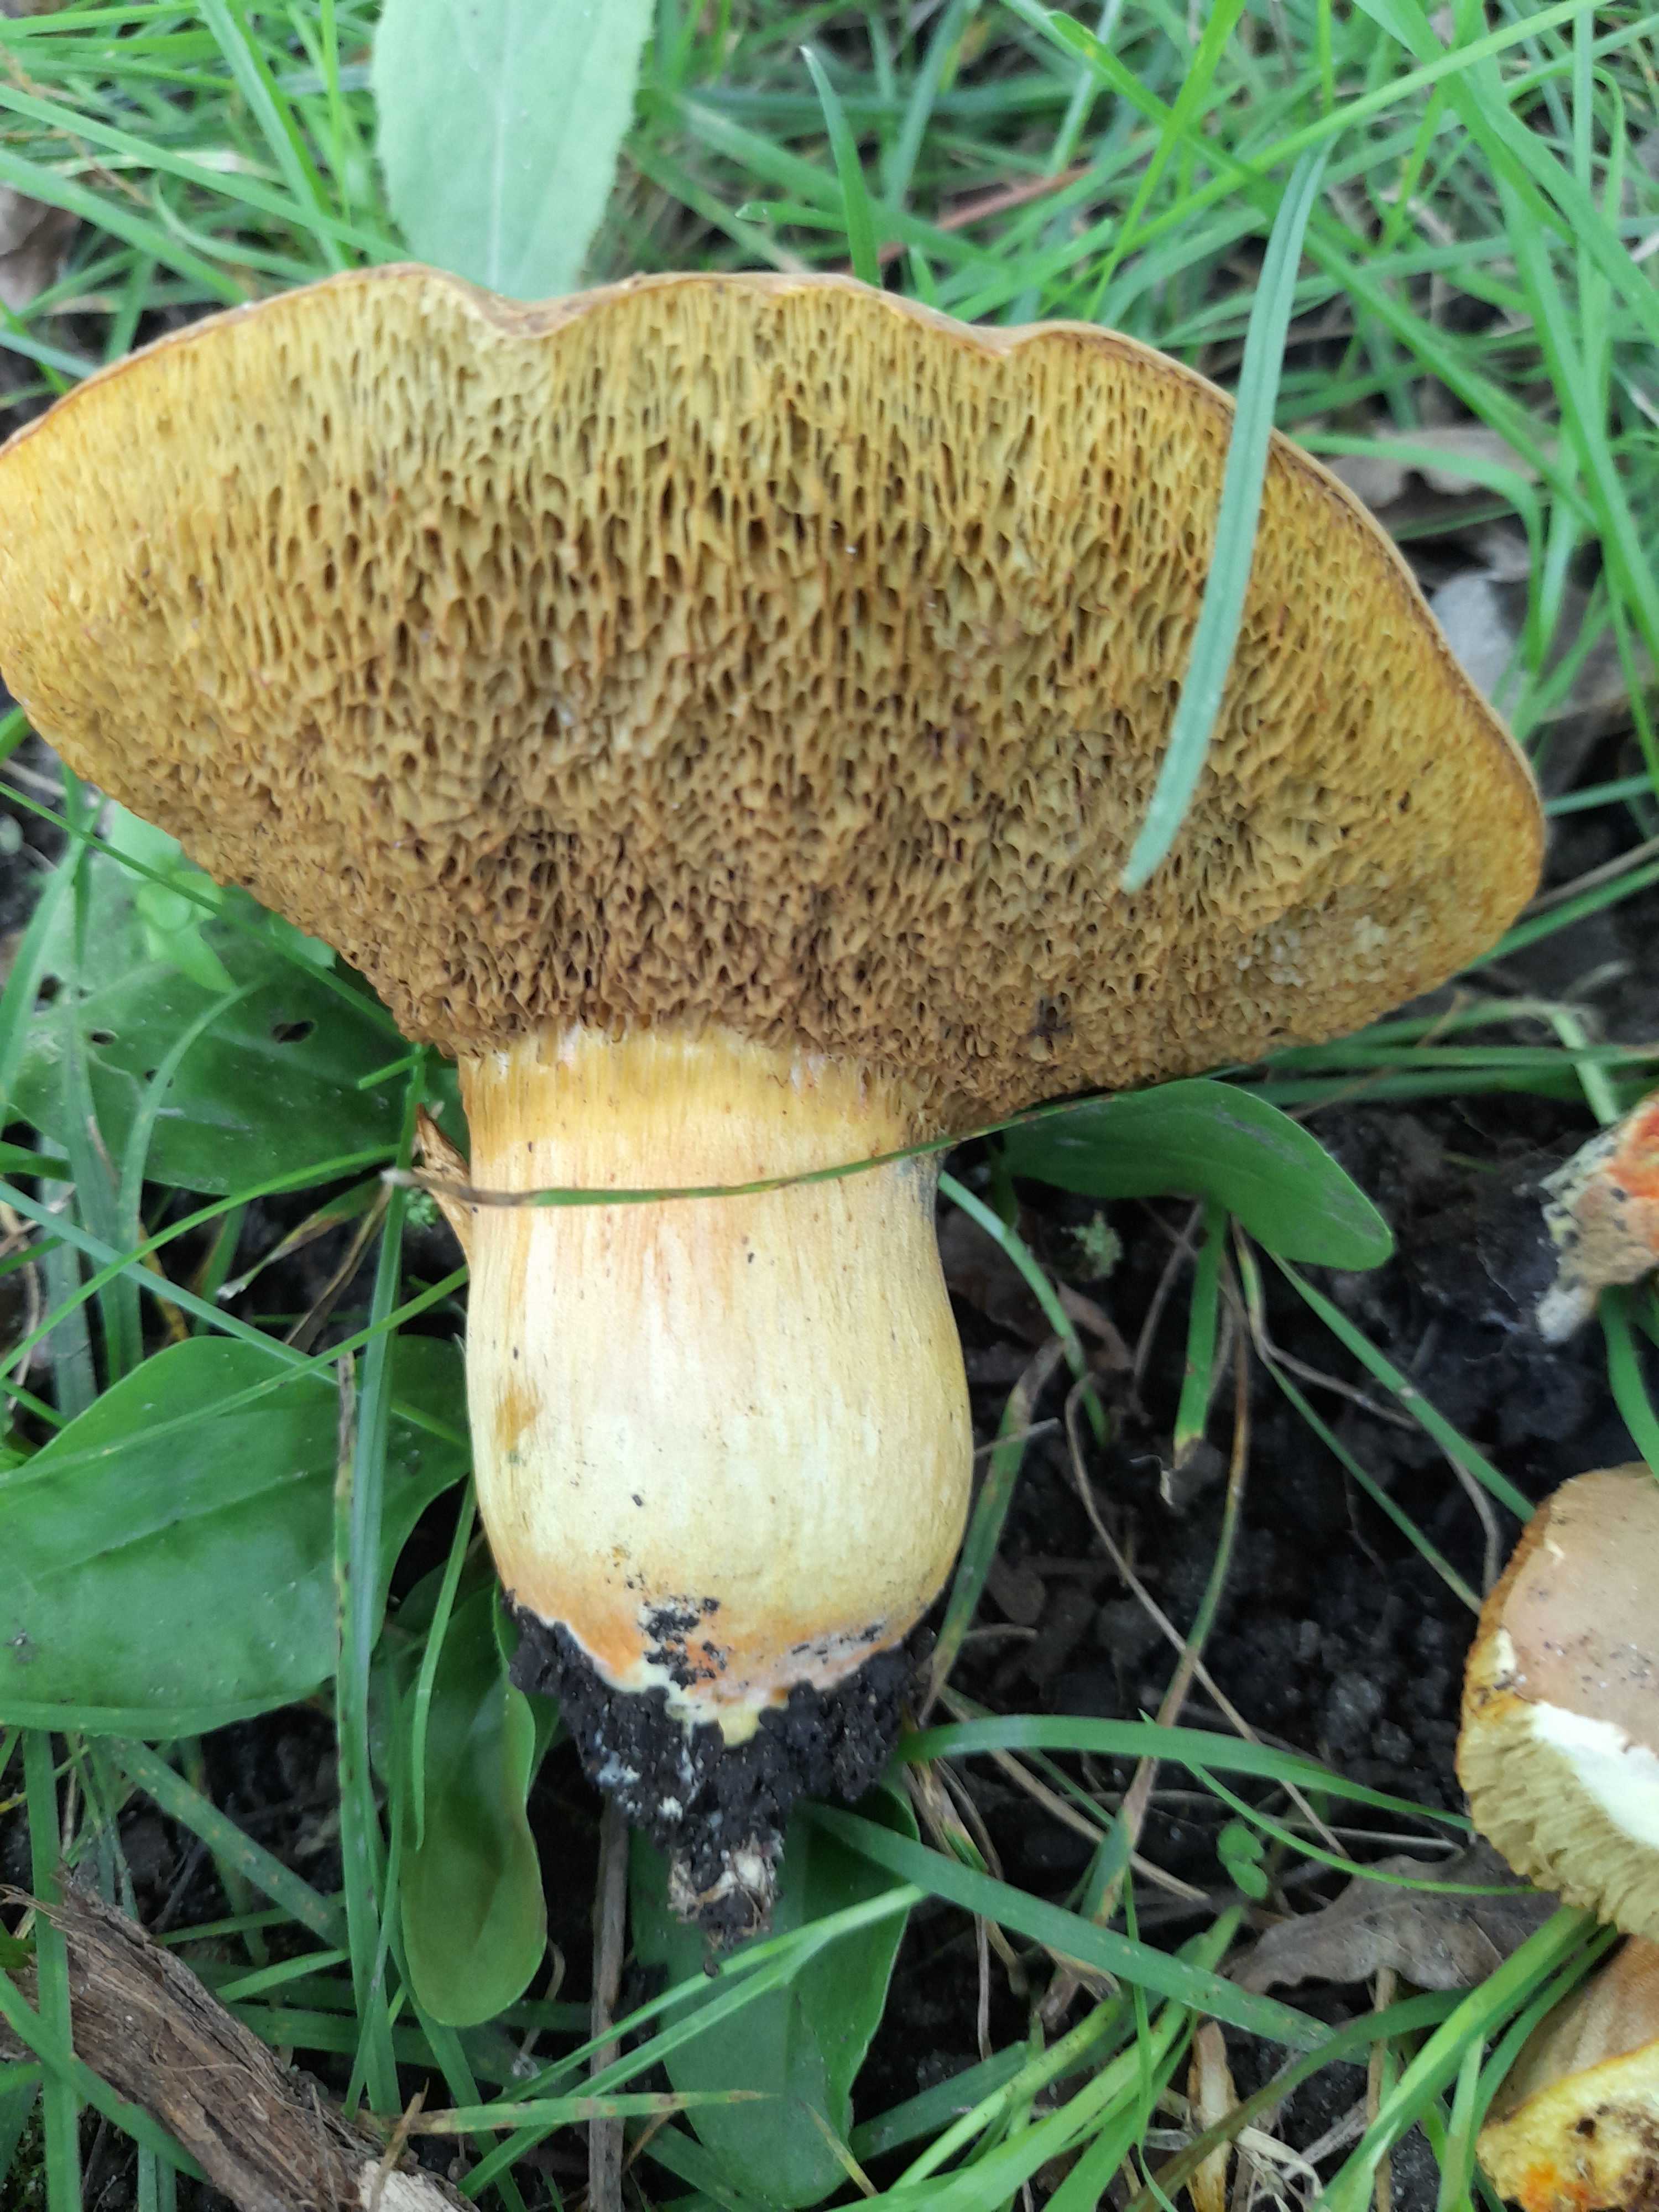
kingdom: Fungi
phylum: Basidiomycota
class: Agaricomycetes
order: Boletales
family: Boletaceae
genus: Hortiboletus
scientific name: Hortiboletus engelii
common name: fersken-rørhat
